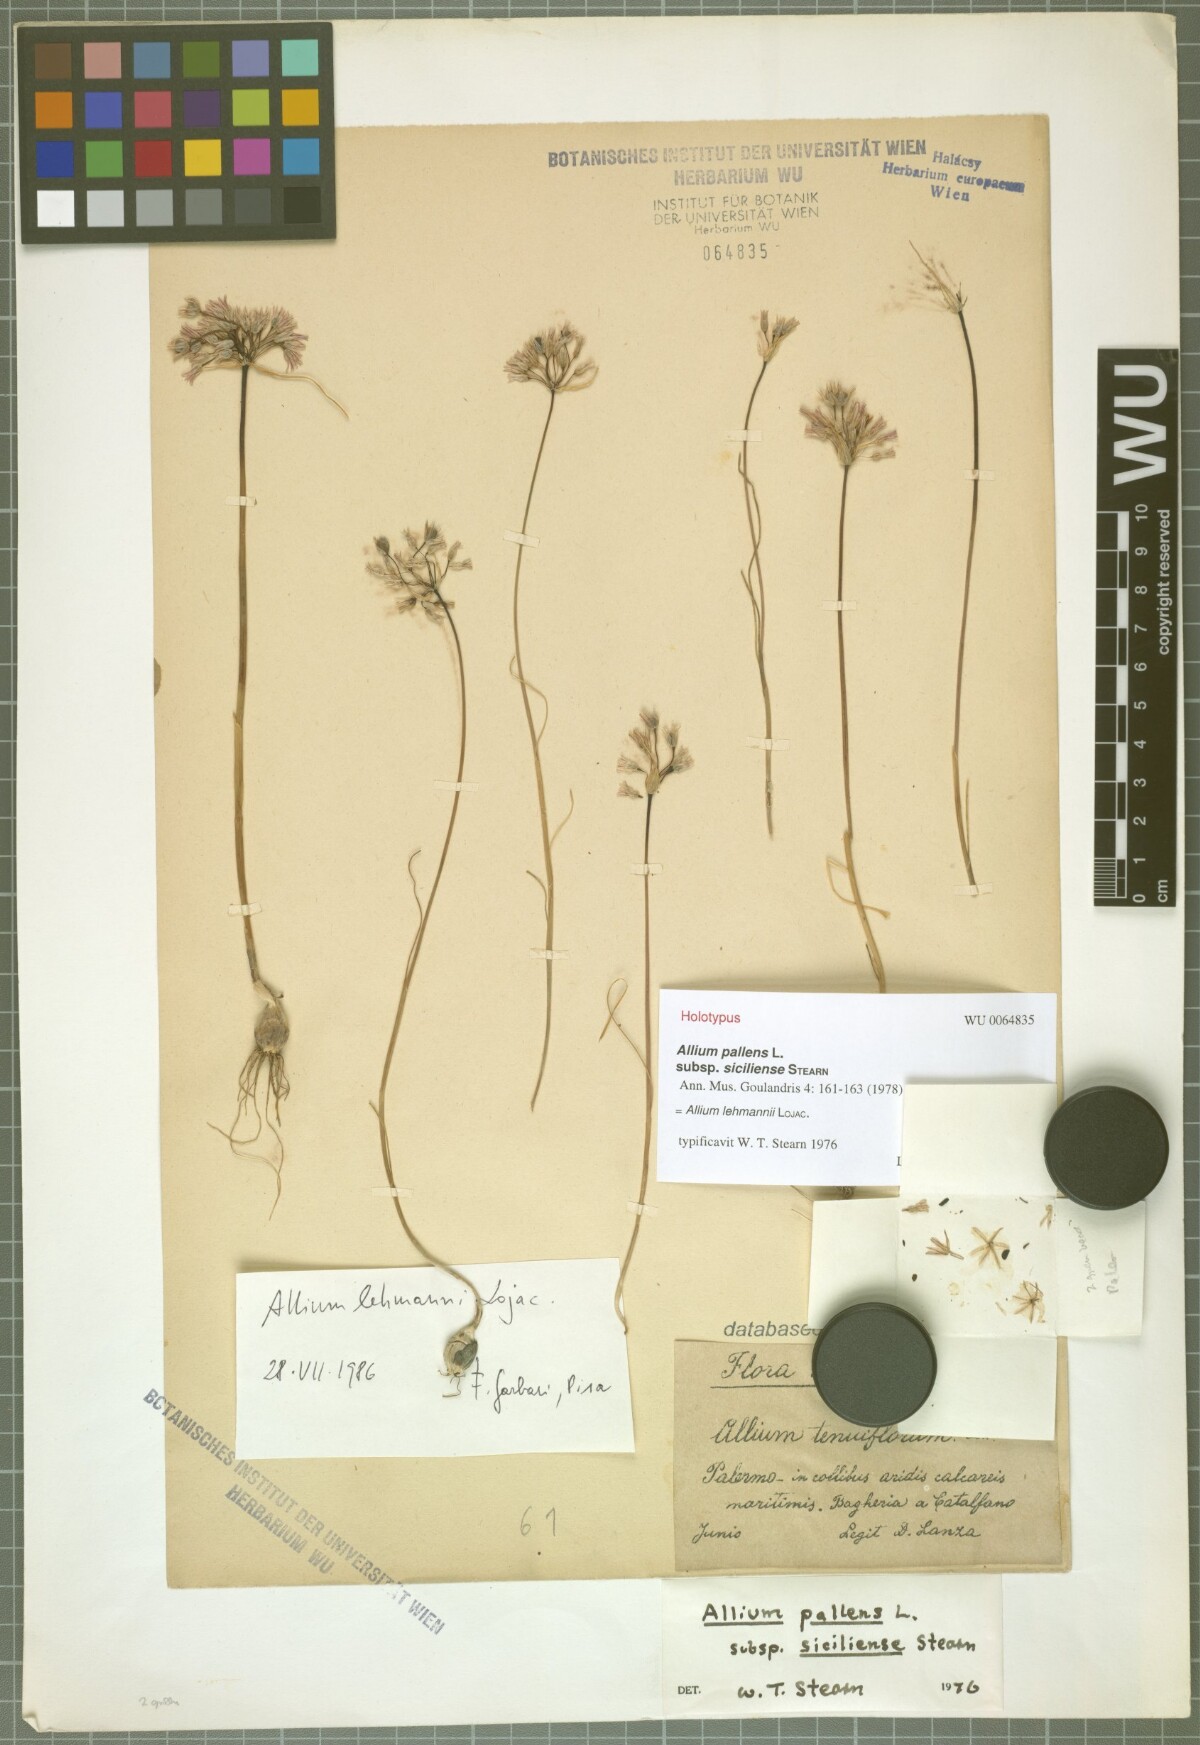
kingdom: Plantae
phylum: Tracheophyta
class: Liliopsida
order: Asparagales
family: Amaryllidaceae
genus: Allium
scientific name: Allium lehmannii
